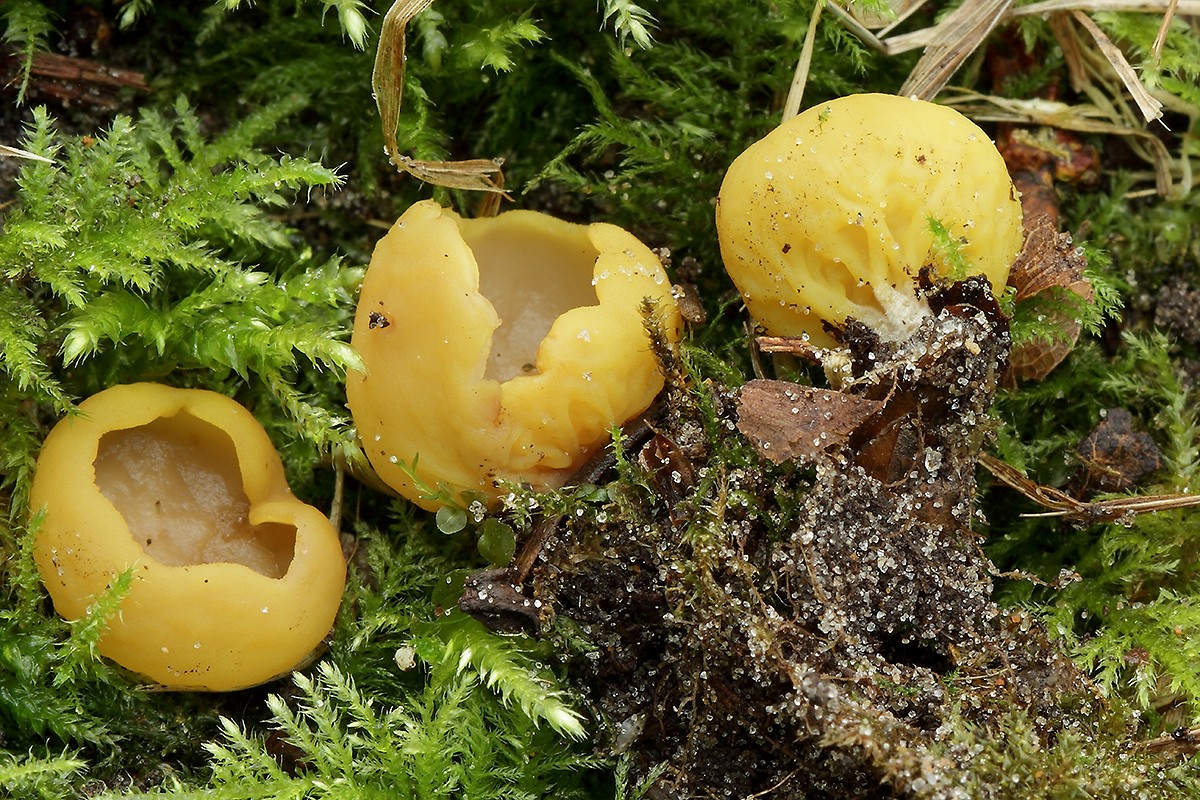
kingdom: Fungi
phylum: Ascomycota
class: Pezizomycetes
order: Pezizales
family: Otideaceae
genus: Otidea
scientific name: Otidea phlebophora
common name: året ørebæger
